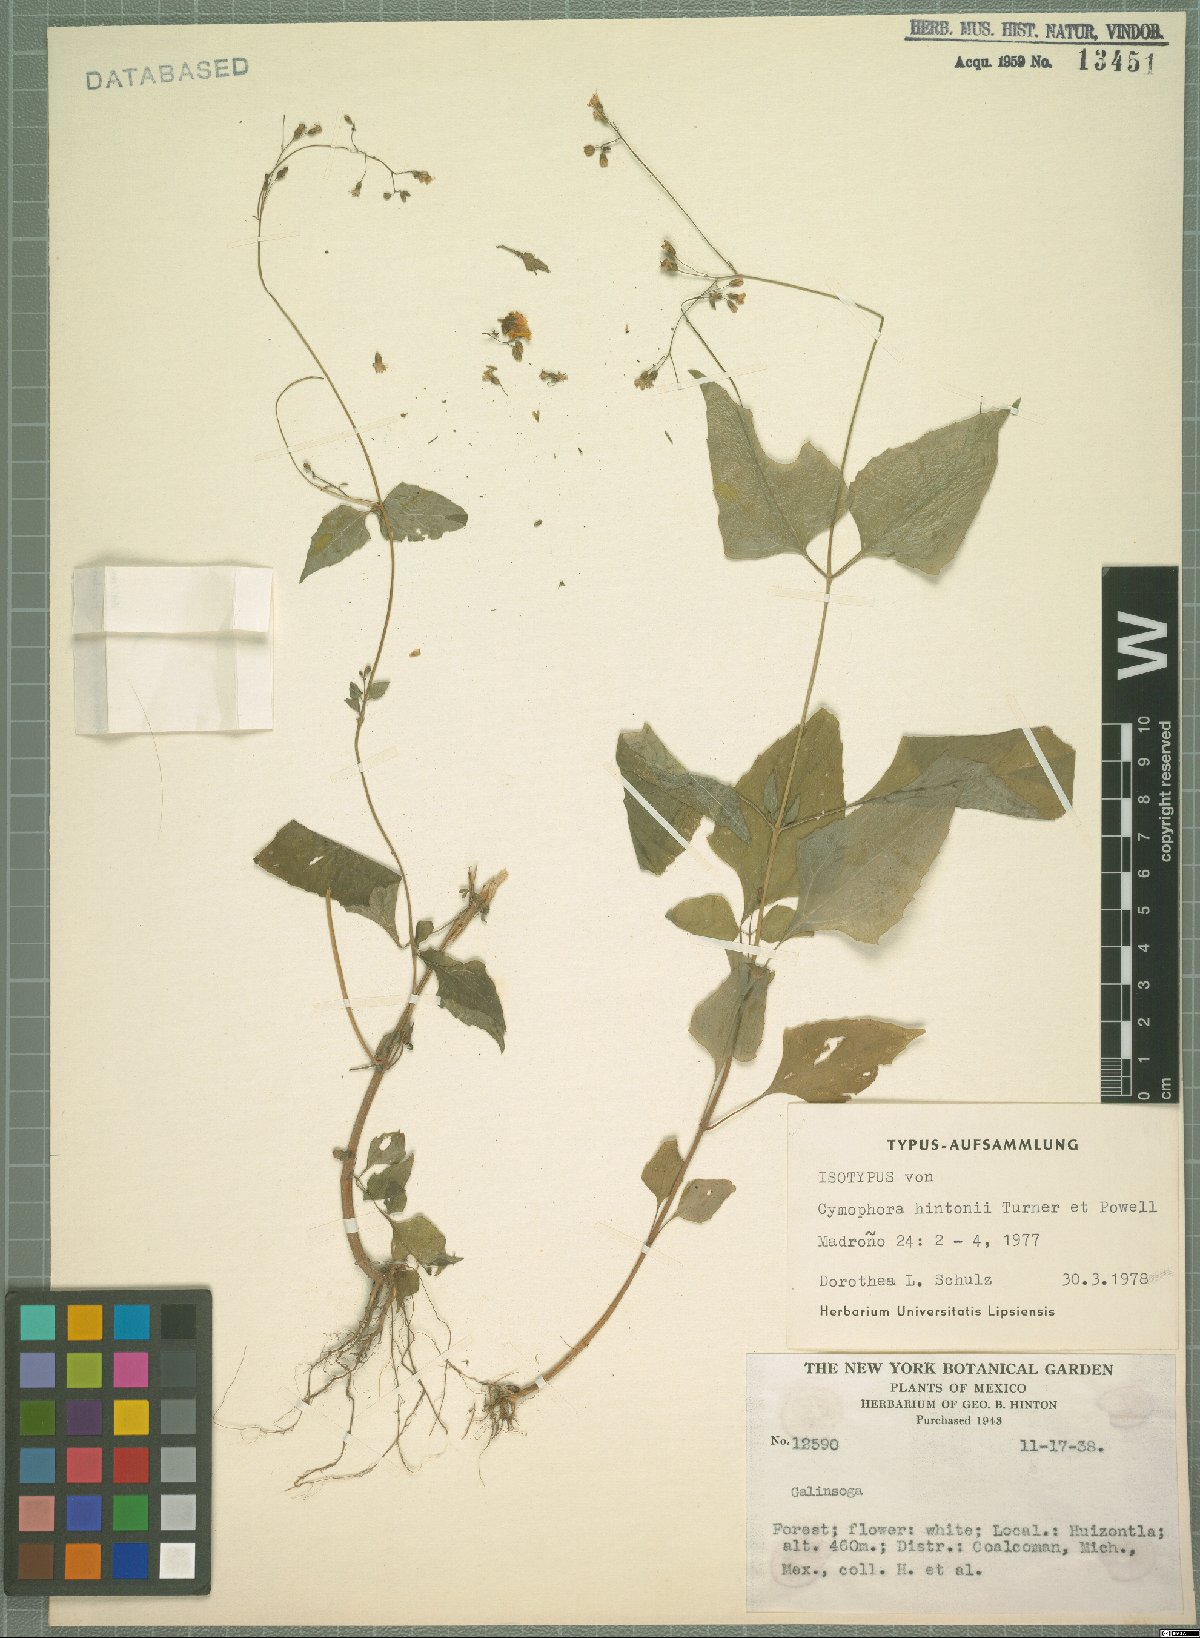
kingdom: Plantae
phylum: Tracheophyta
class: Magnoliopsida
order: Asterales
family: Asteraceae
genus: Tridax
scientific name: Tridax hintonii
